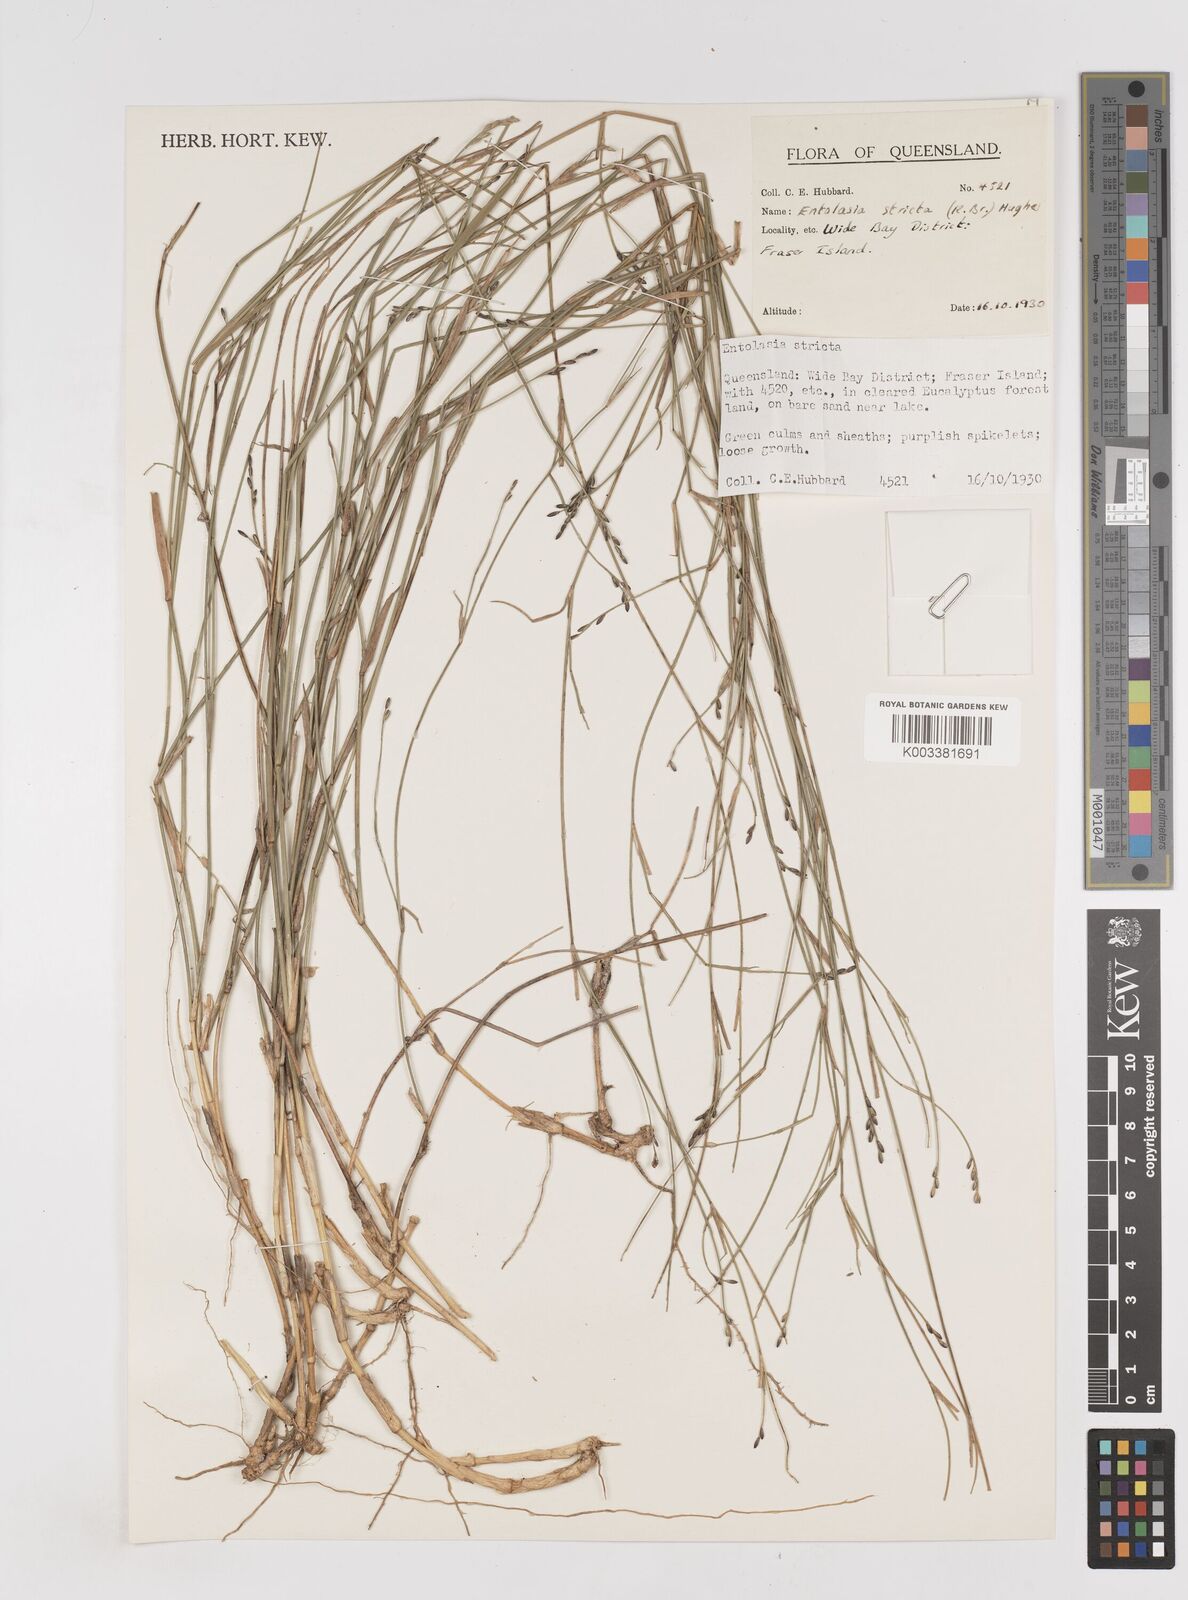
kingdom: Plantae
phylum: Tracheophyta
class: Liliopsida
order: Poales
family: Poaceae
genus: Entolasia
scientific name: Entolasia stricta
